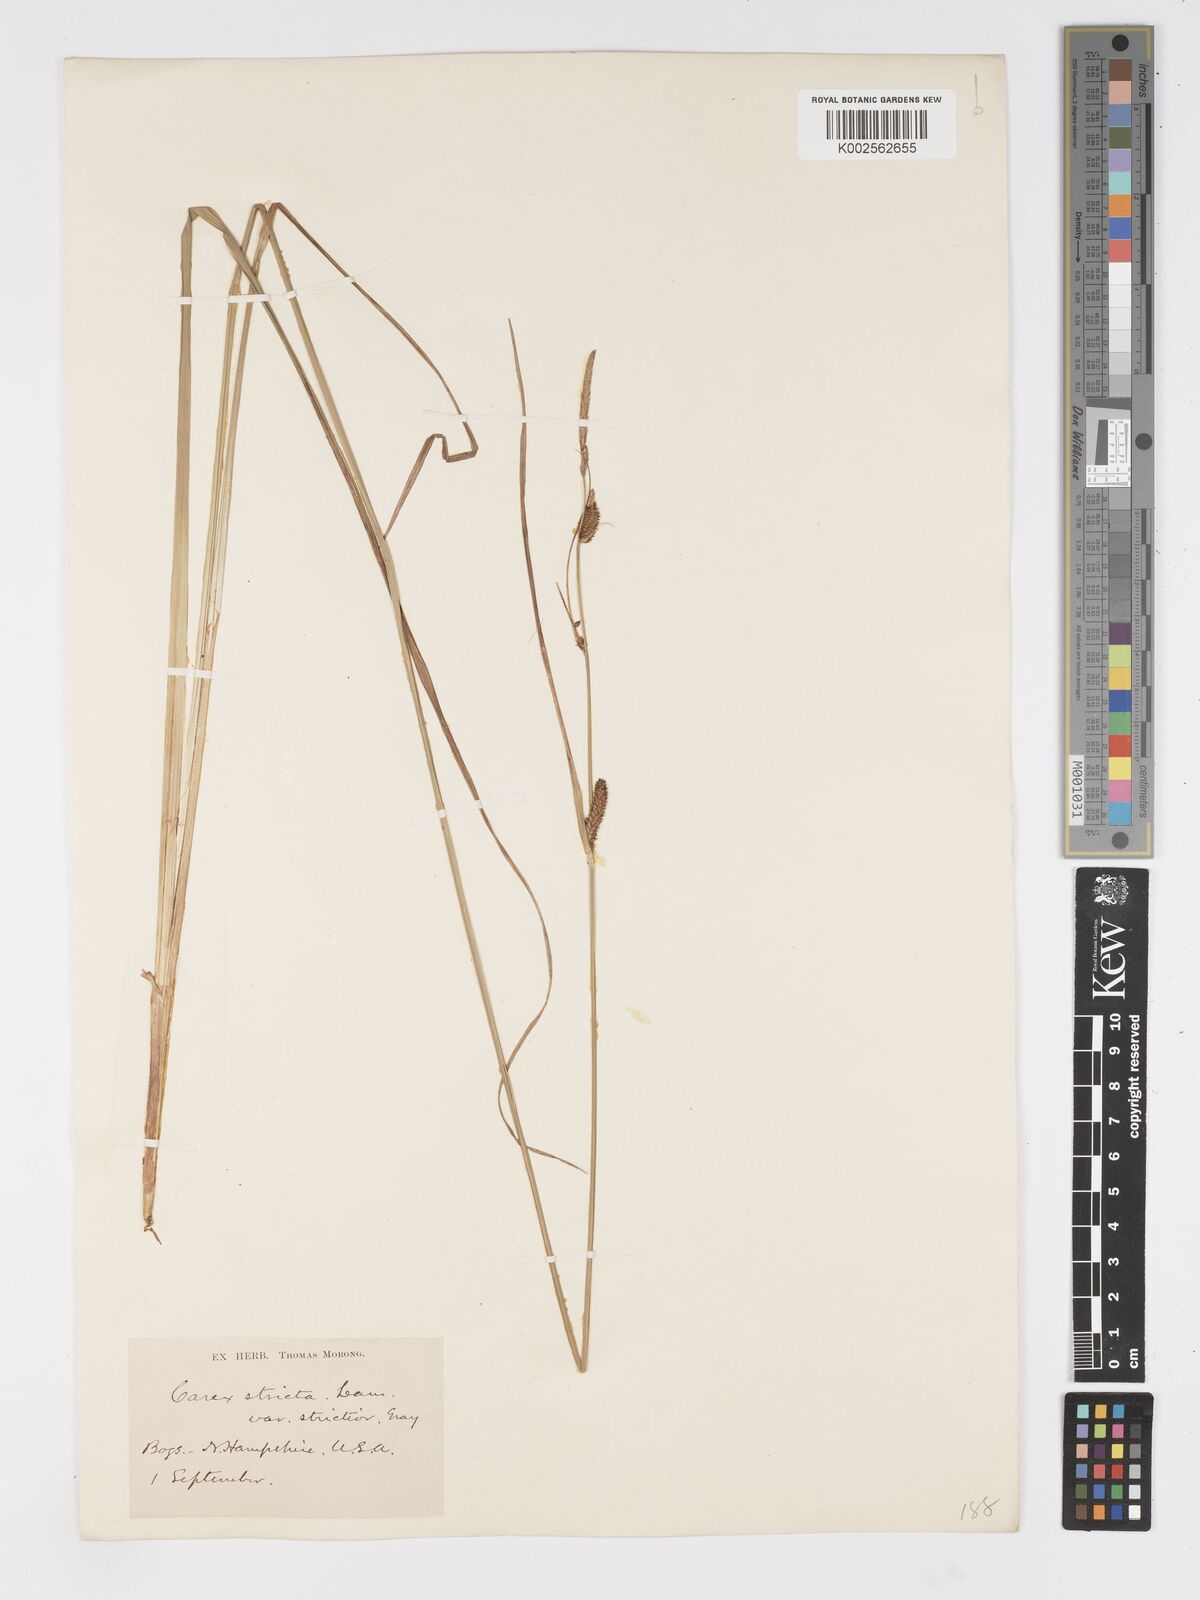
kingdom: Plantae
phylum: Tracheophyta
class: Liliopsida
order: Poales
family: Cyperaceae
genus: Carex
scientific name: Carex stricta
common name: Hummock sedge
